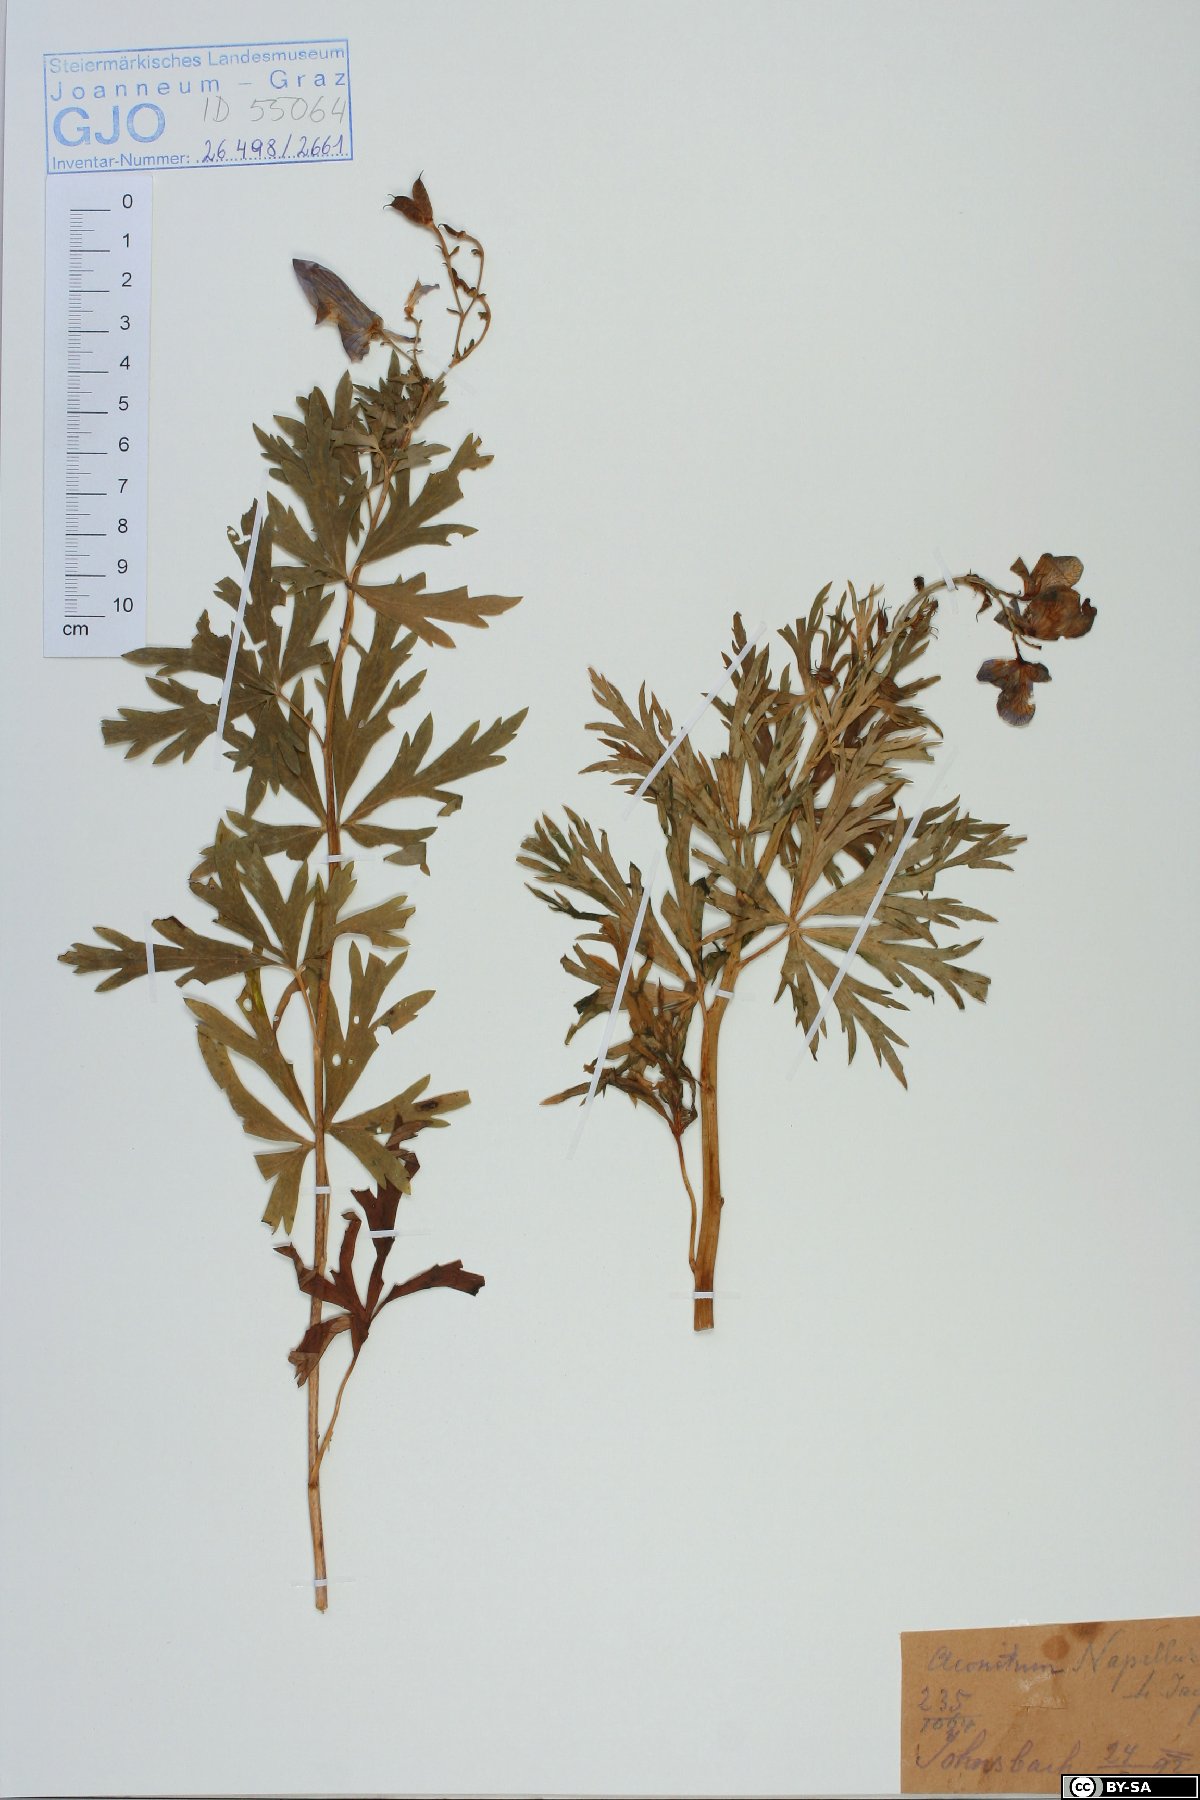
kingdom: Plantae
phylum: Tracheophyta
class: Magnoliopsida
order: Ranunculales
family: Ranunculaceae
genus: Aconitum
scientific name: Aconitum napellus
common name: Garden monkshood
